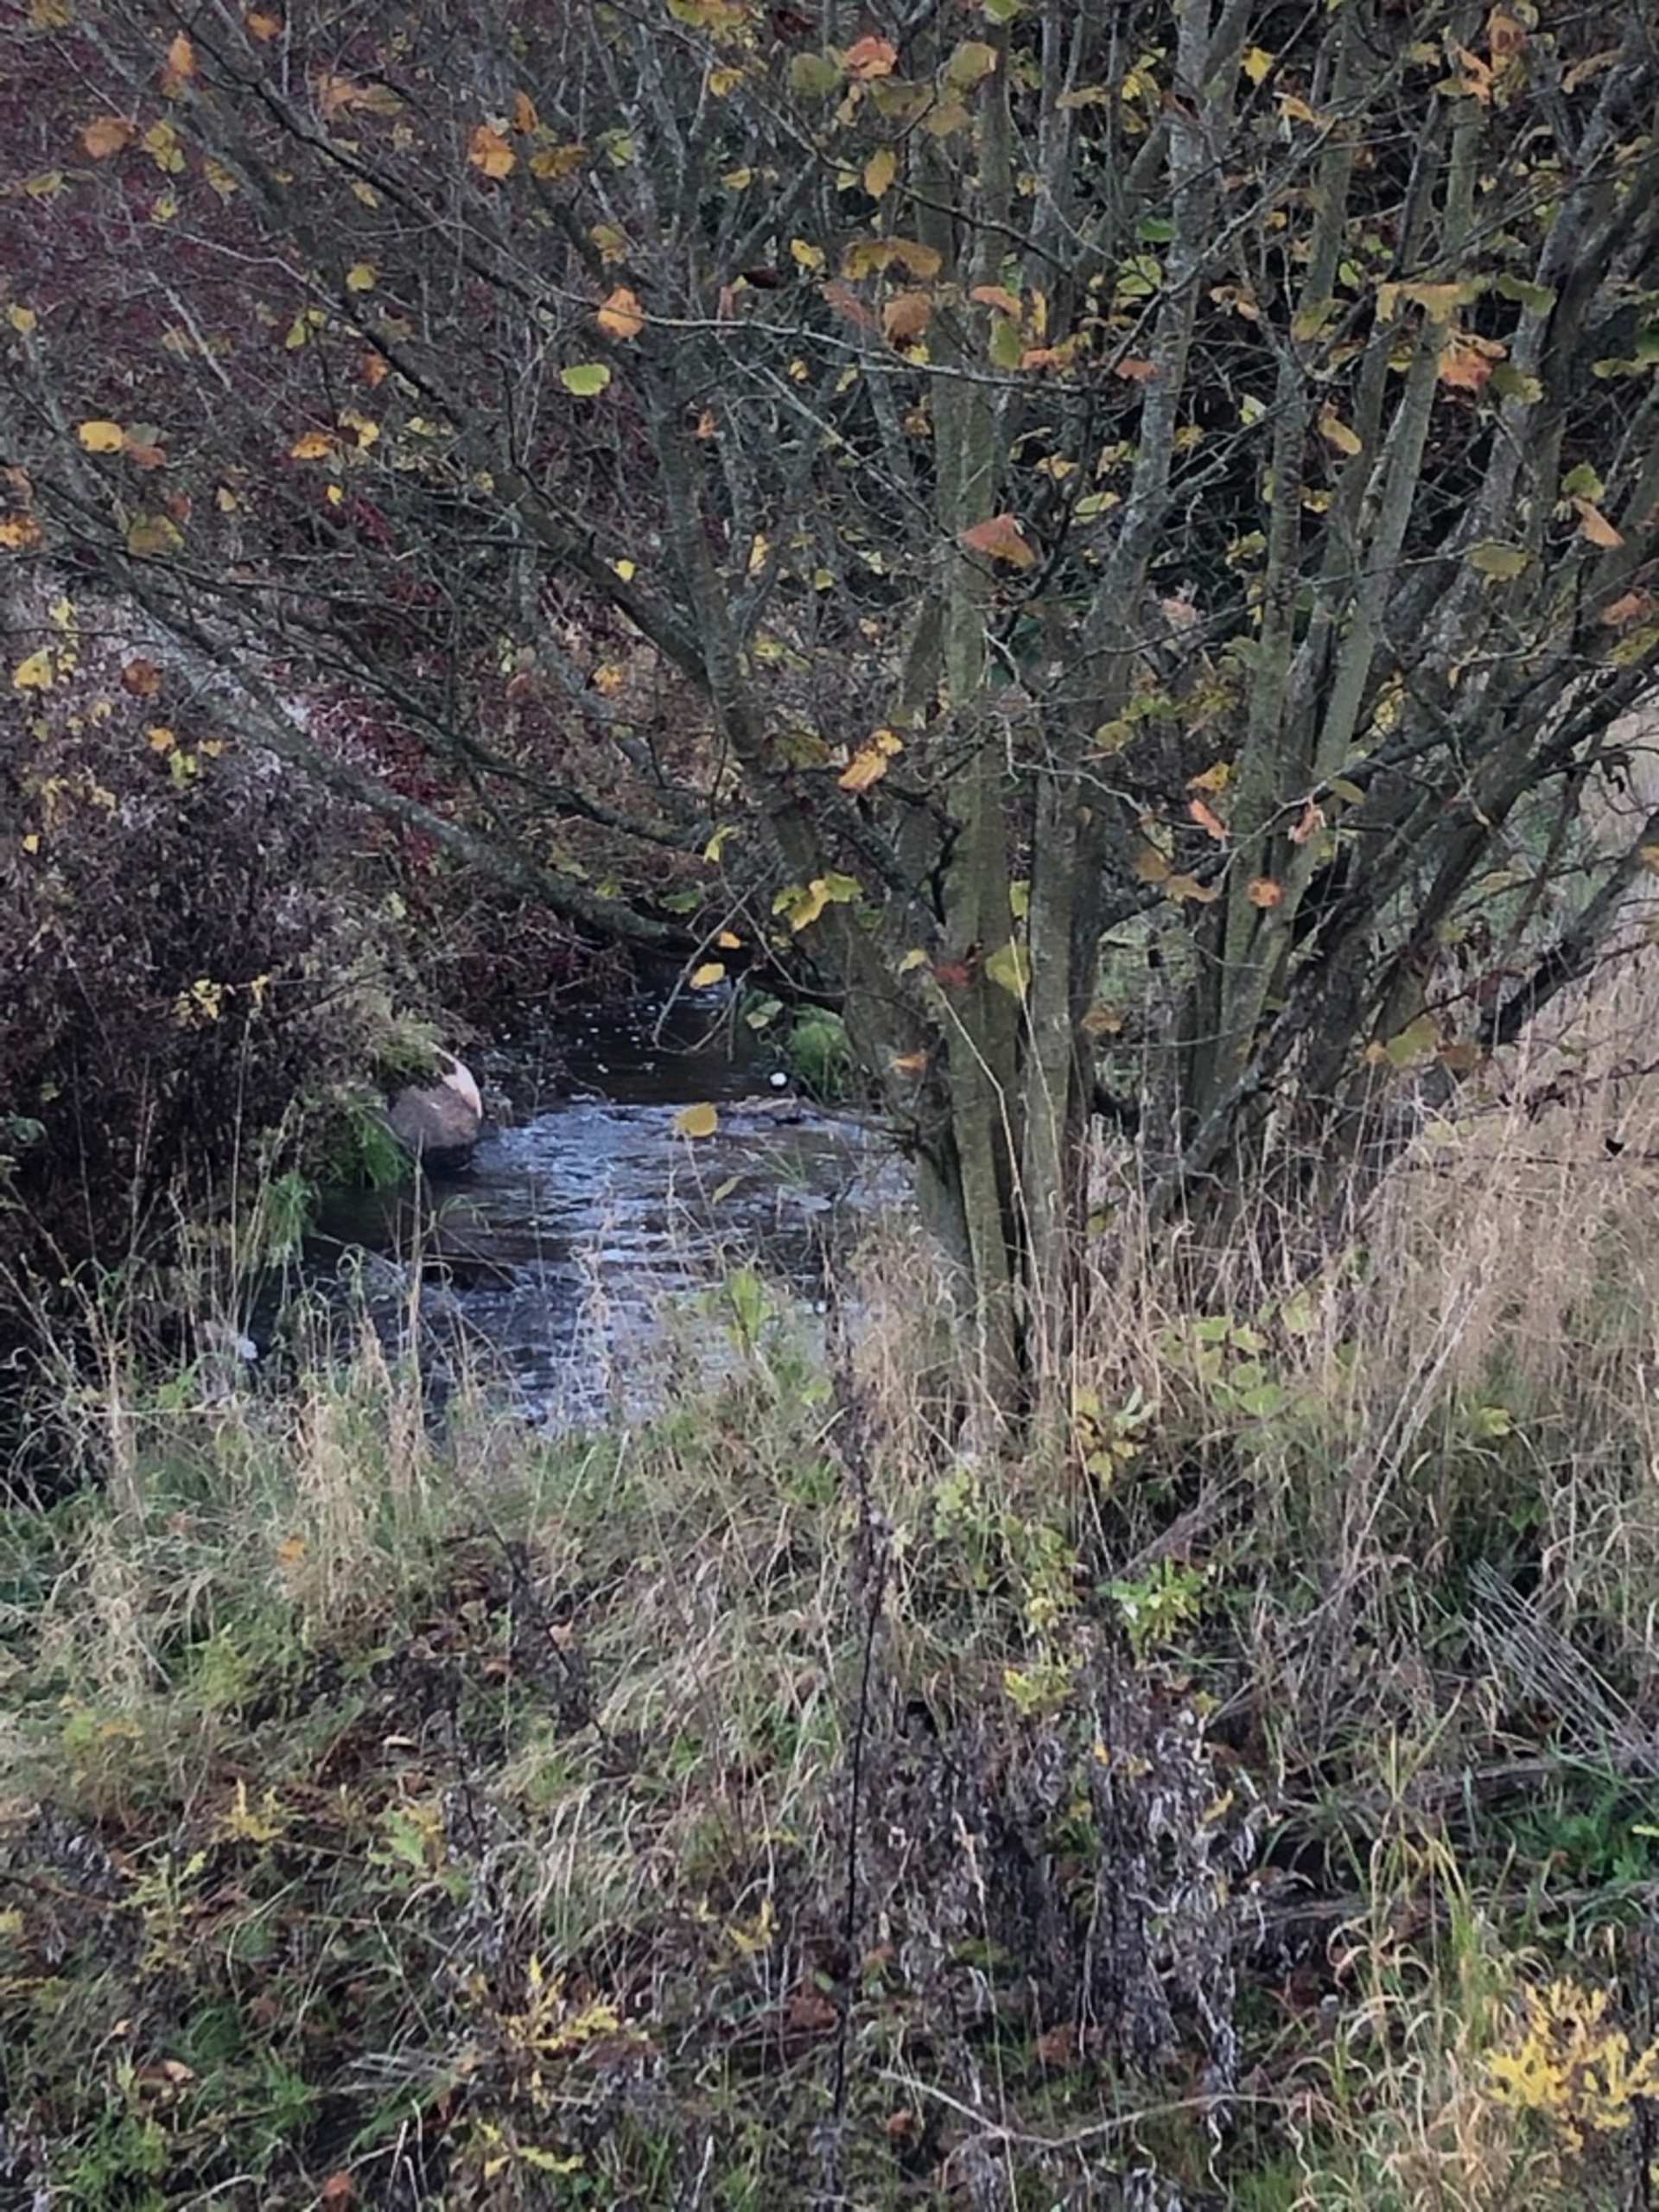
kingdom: Animalia
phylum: Chordata
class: Aves
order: Passeriformes
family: Cinclidae
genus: Cinclus
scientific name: Cinclus cinclus
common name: Vandstær
